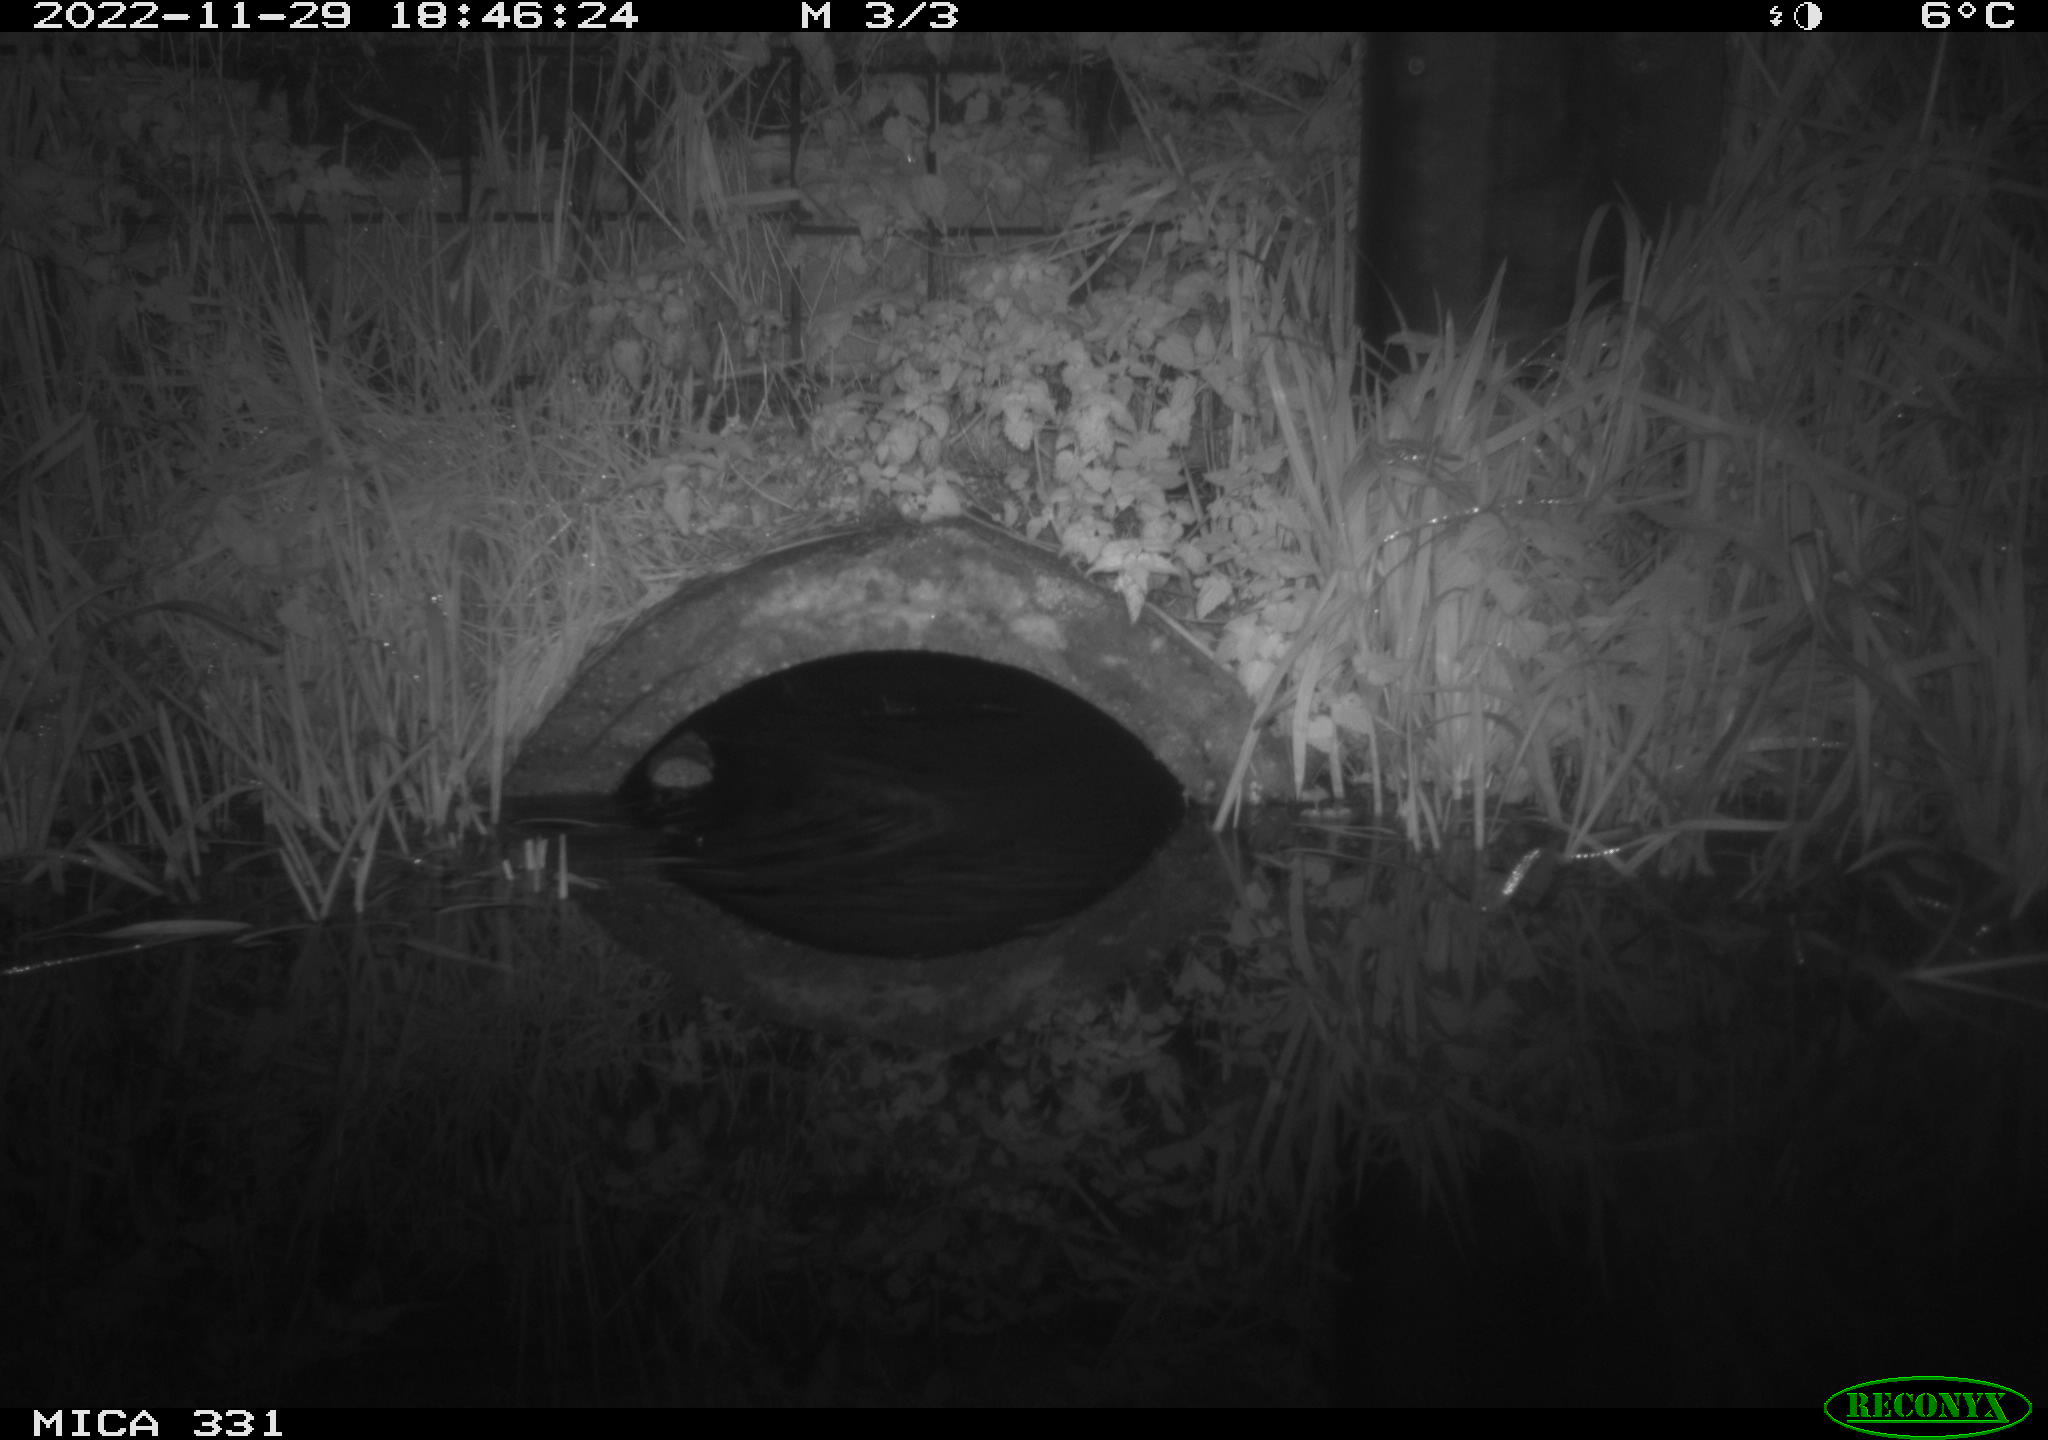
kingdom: Animalia
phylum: Chordata
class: Mammalia
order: Rodentia
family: Muridae
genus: Rattus
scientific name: Rattus norvegicus
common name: Brown rat
